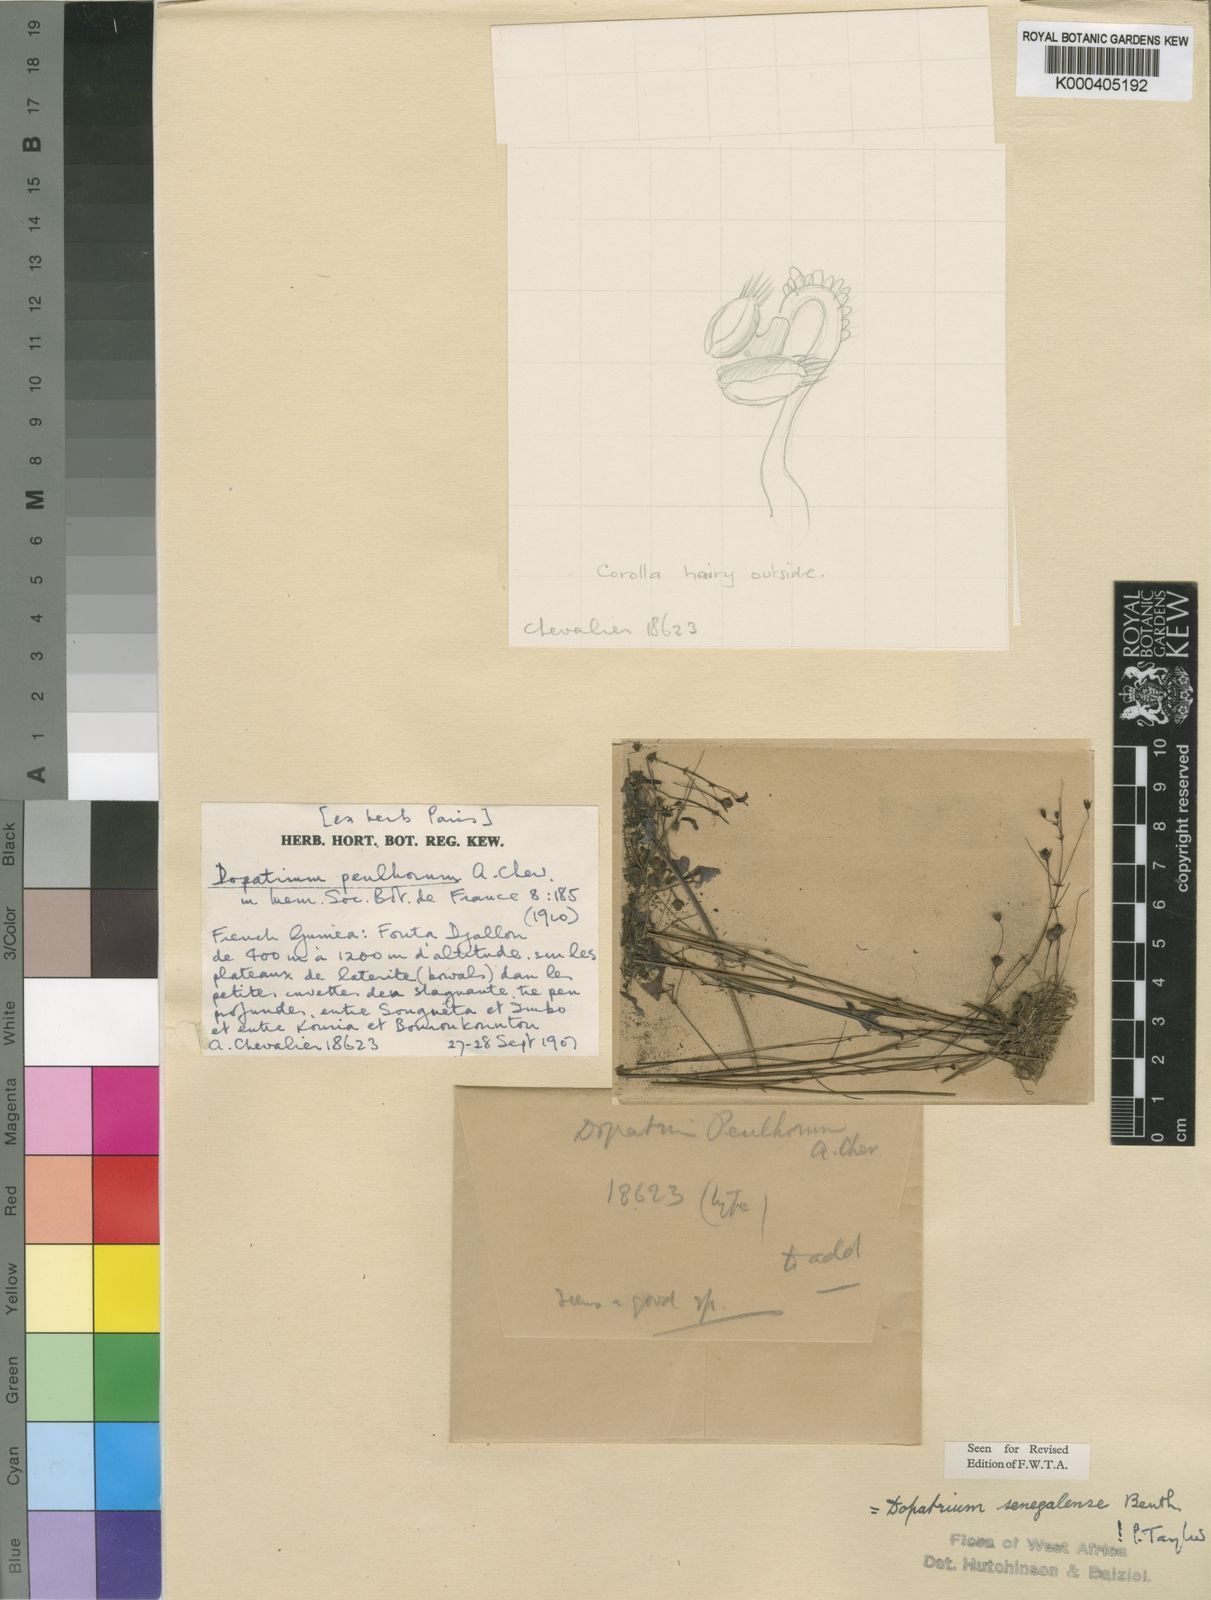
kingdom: Plantae
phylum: Tracheophyta
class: Magnoliopsida
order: Lamiales
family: Plantaginaceae
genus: Dopatrium
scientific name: Dopatrium senegalense
